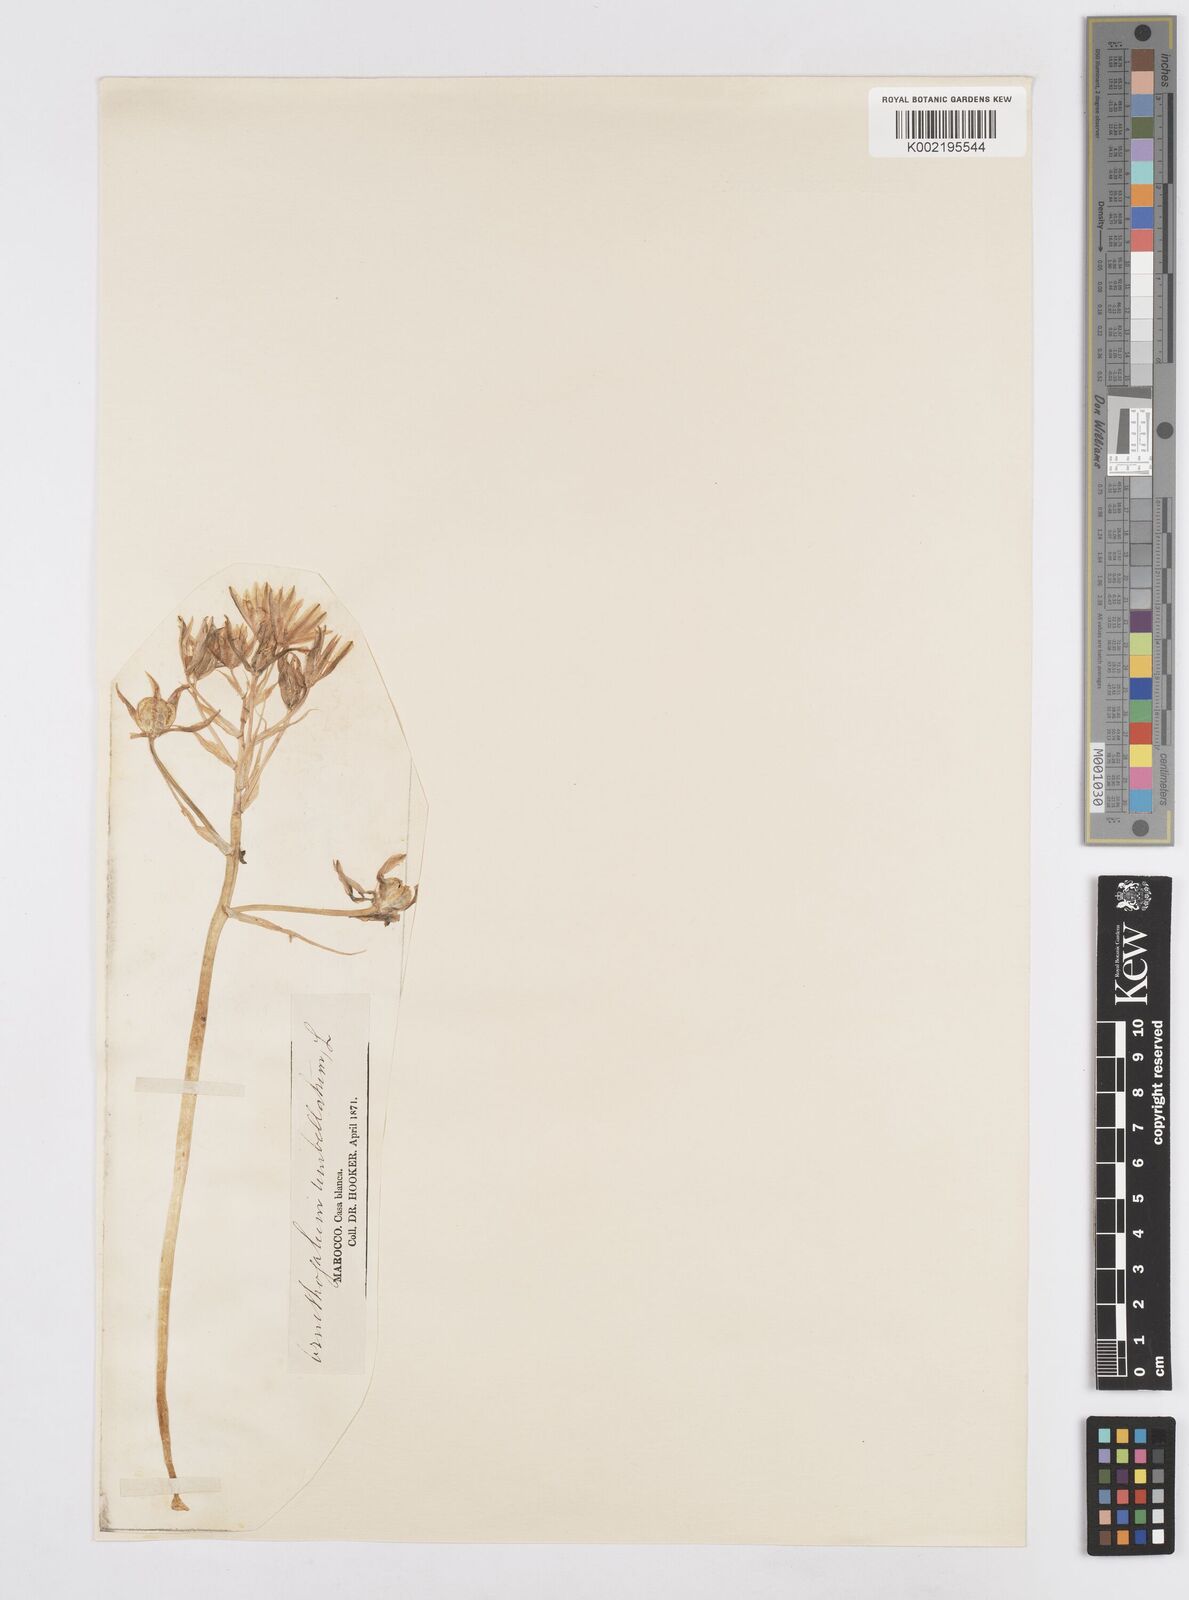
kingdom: Plantae
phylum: Tracheophyta
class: Liliopsida
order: Asparagales
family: Asparagaceae
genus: Ornithogalum
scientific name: Ornithogalum umbellatum
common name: Garden star-of-bethlehem
